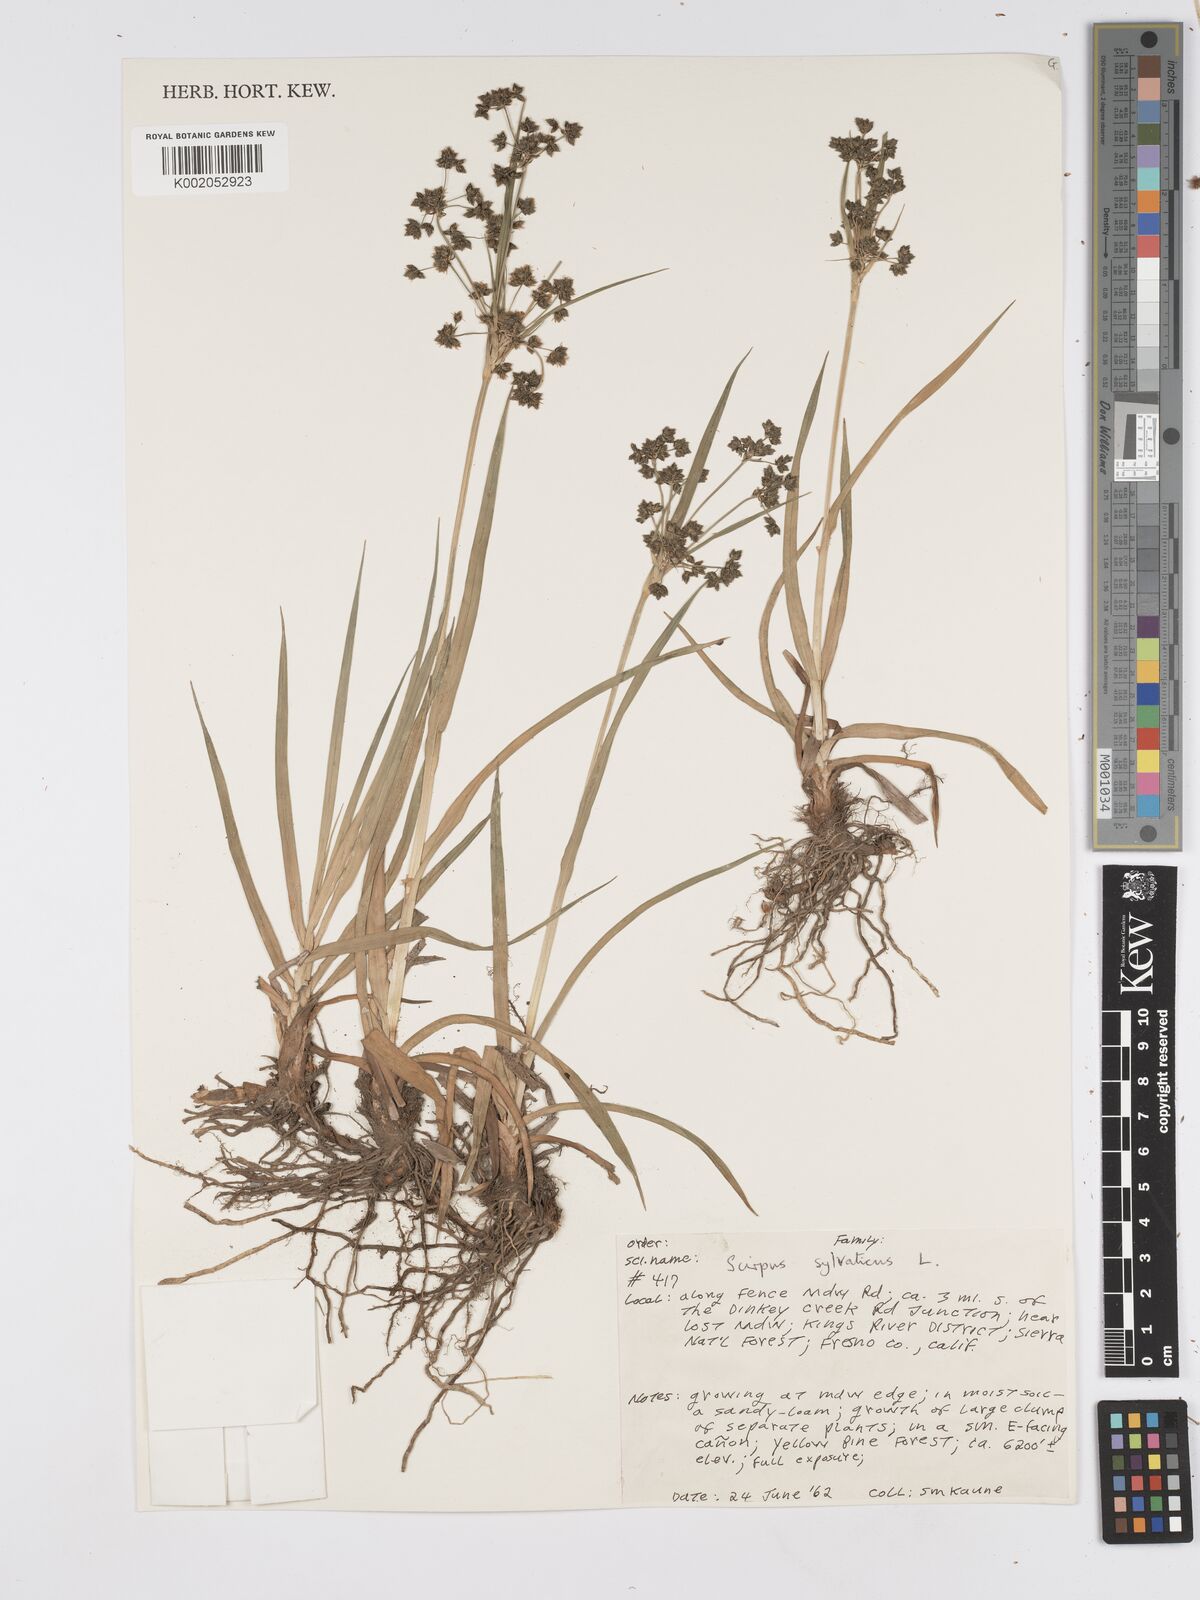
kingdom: Plantae
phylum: Tracheophyta
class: Liliopsida
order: Poales
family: Cyperaceae
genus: Scirpus
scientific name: Scirpus sylvaticus
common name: Wood club-rush
